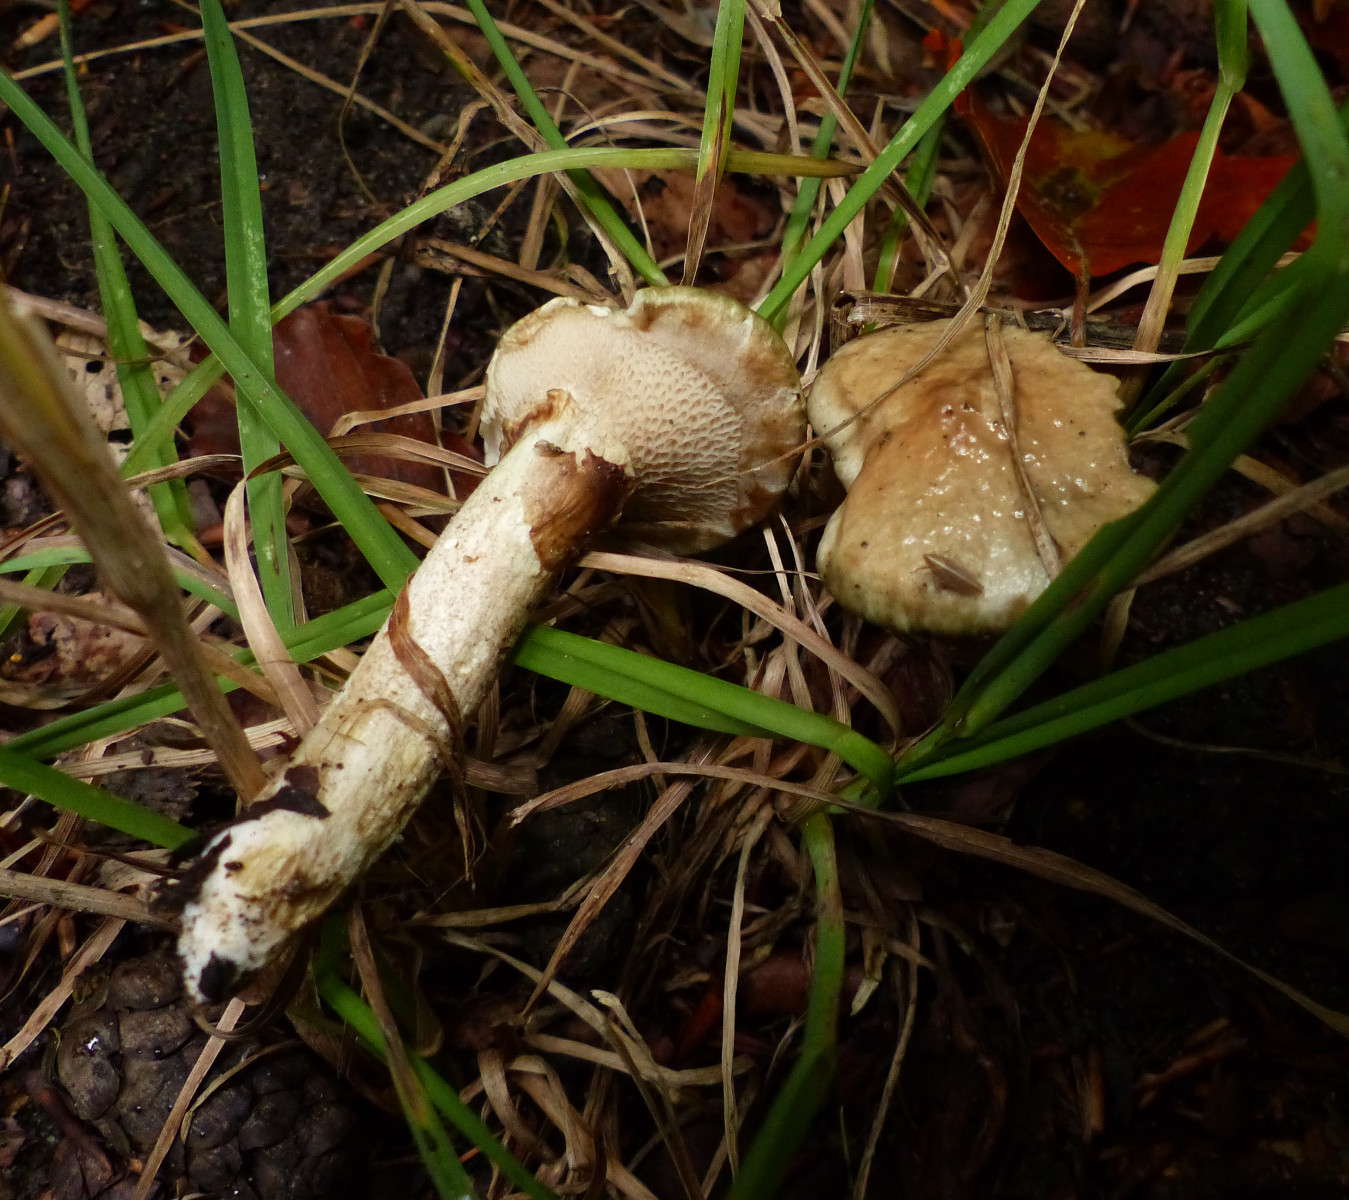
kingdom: Fungi
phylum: Basidiomycota
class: Agaricomycetes
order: Boletales
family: Suillaceae
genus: Suillus
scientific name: Suillus viscidus
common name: olivengrå slimrørhat
